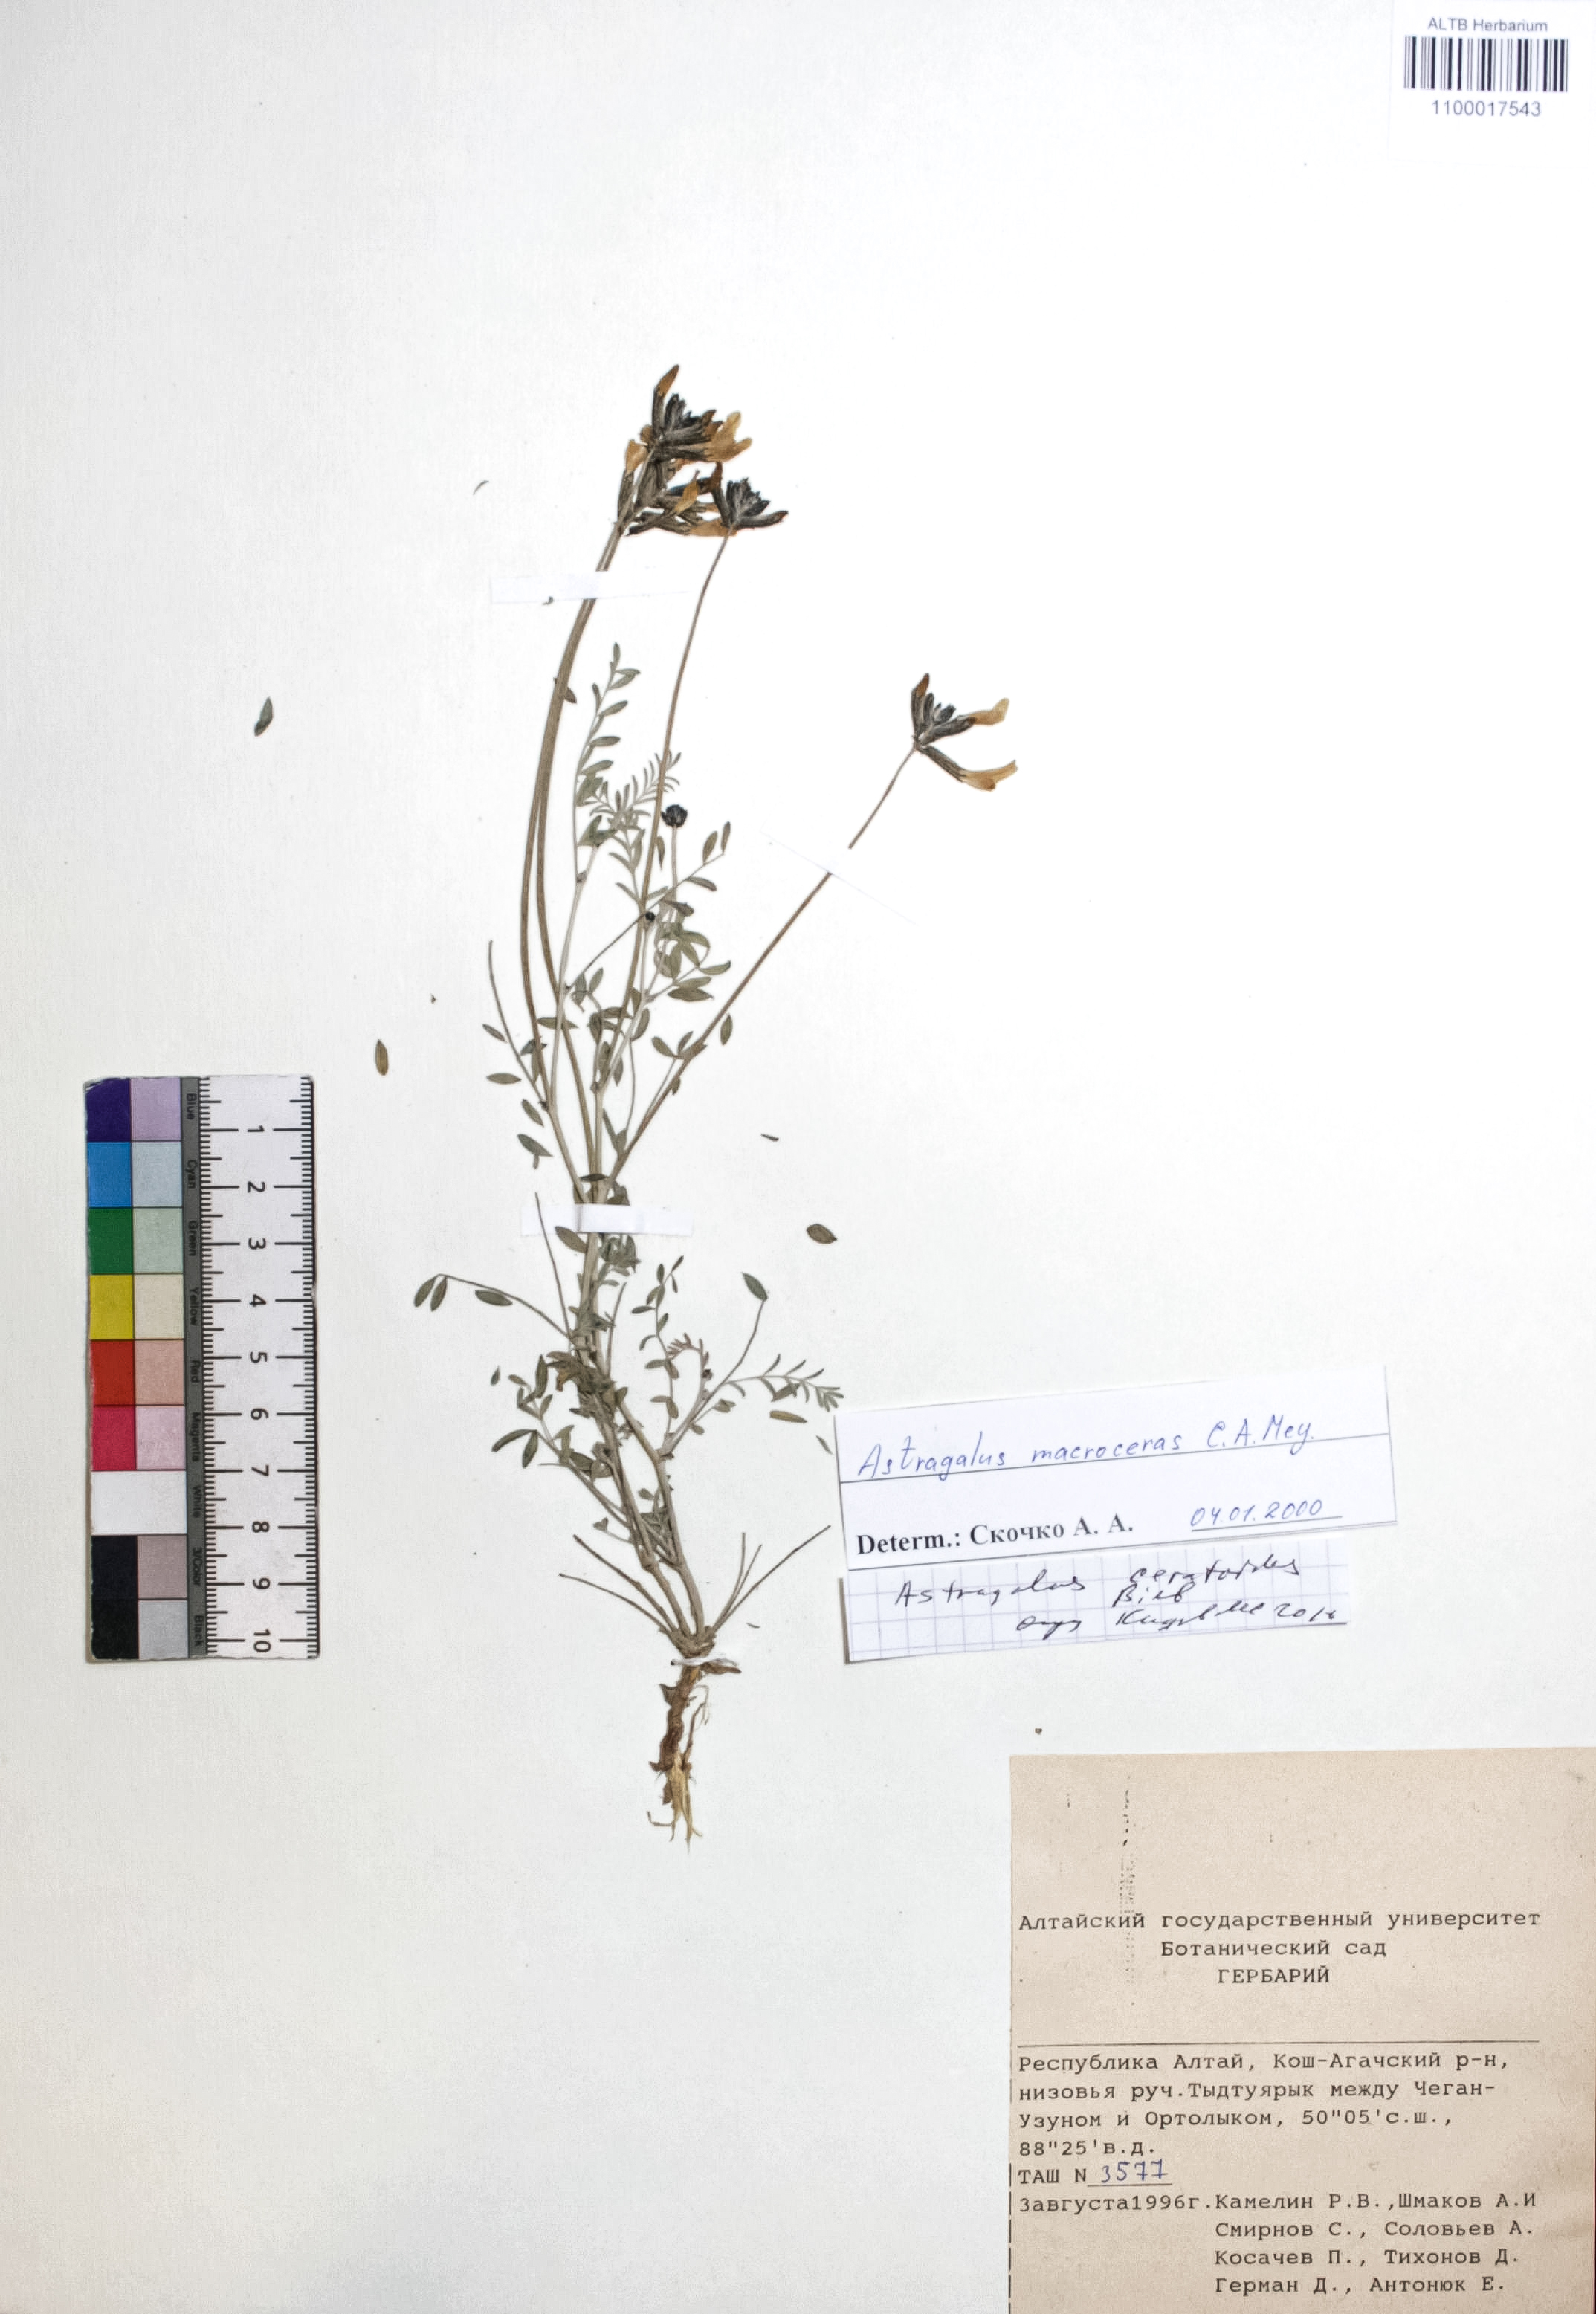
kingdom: Plantae
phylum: Tracheophyta
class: Magnoliopsida
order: Fabales
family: Fabaceae
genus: Astragalus
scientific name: Astragalus ceratoides
